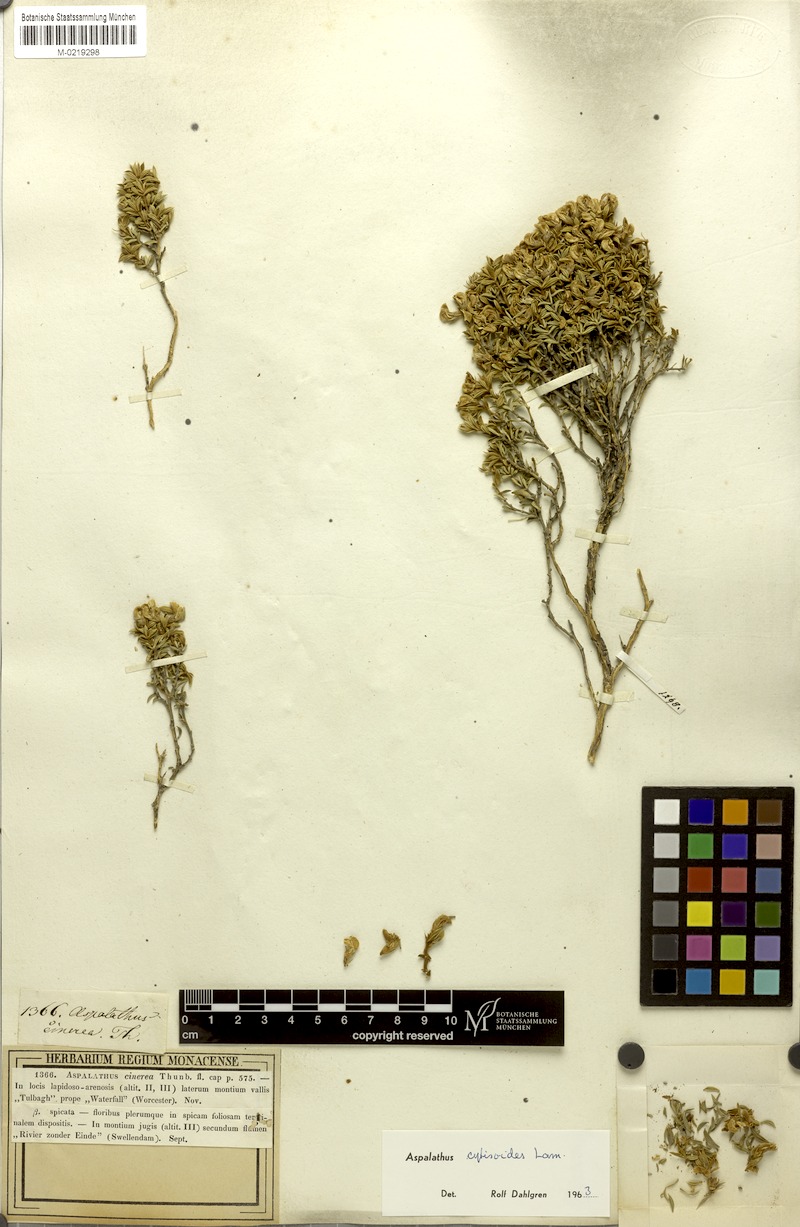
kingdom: Plantae
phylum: Tracheophyta
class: Magnoliopsida
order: Fabales
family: Fabaceae
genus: Aspalathus
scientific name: Aspalathus cytisoides
